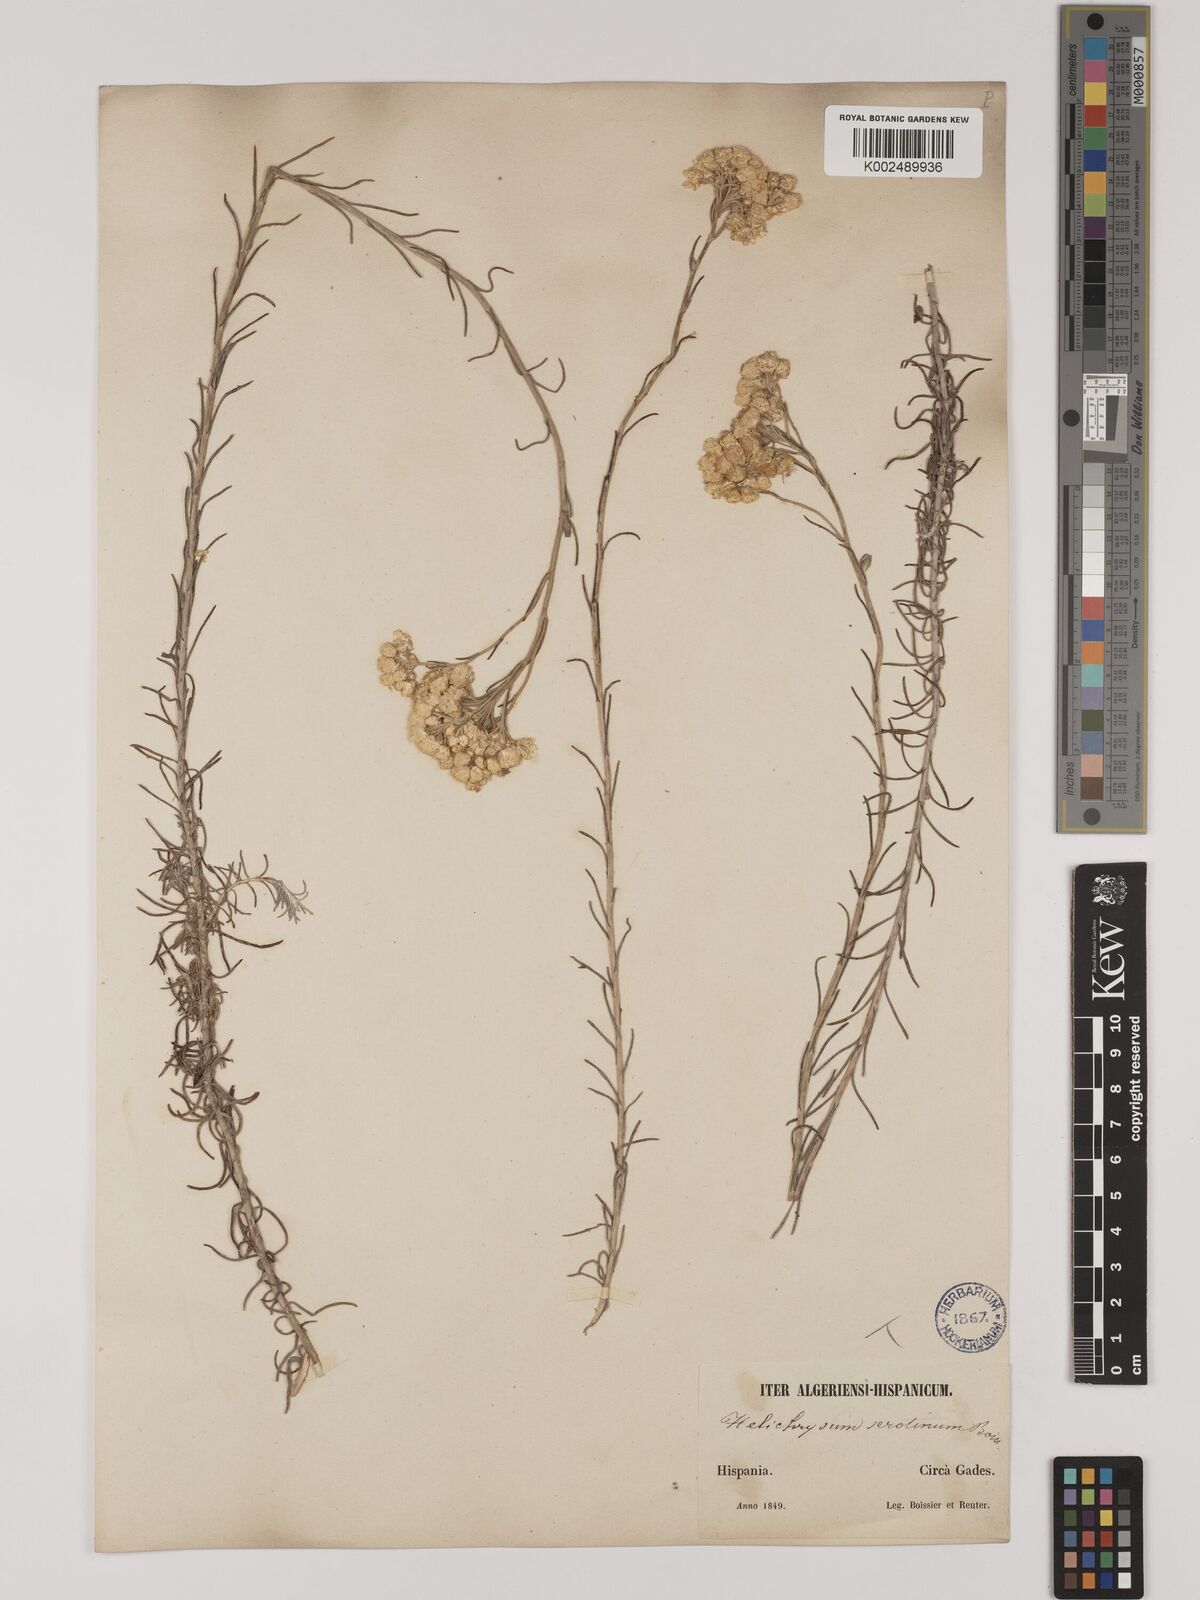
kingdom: Plantae
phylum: Tracheophyta
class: Magnoliopsida
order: Asterales
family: Asteraceae
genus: Helichrysum
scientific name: Helichrysum
